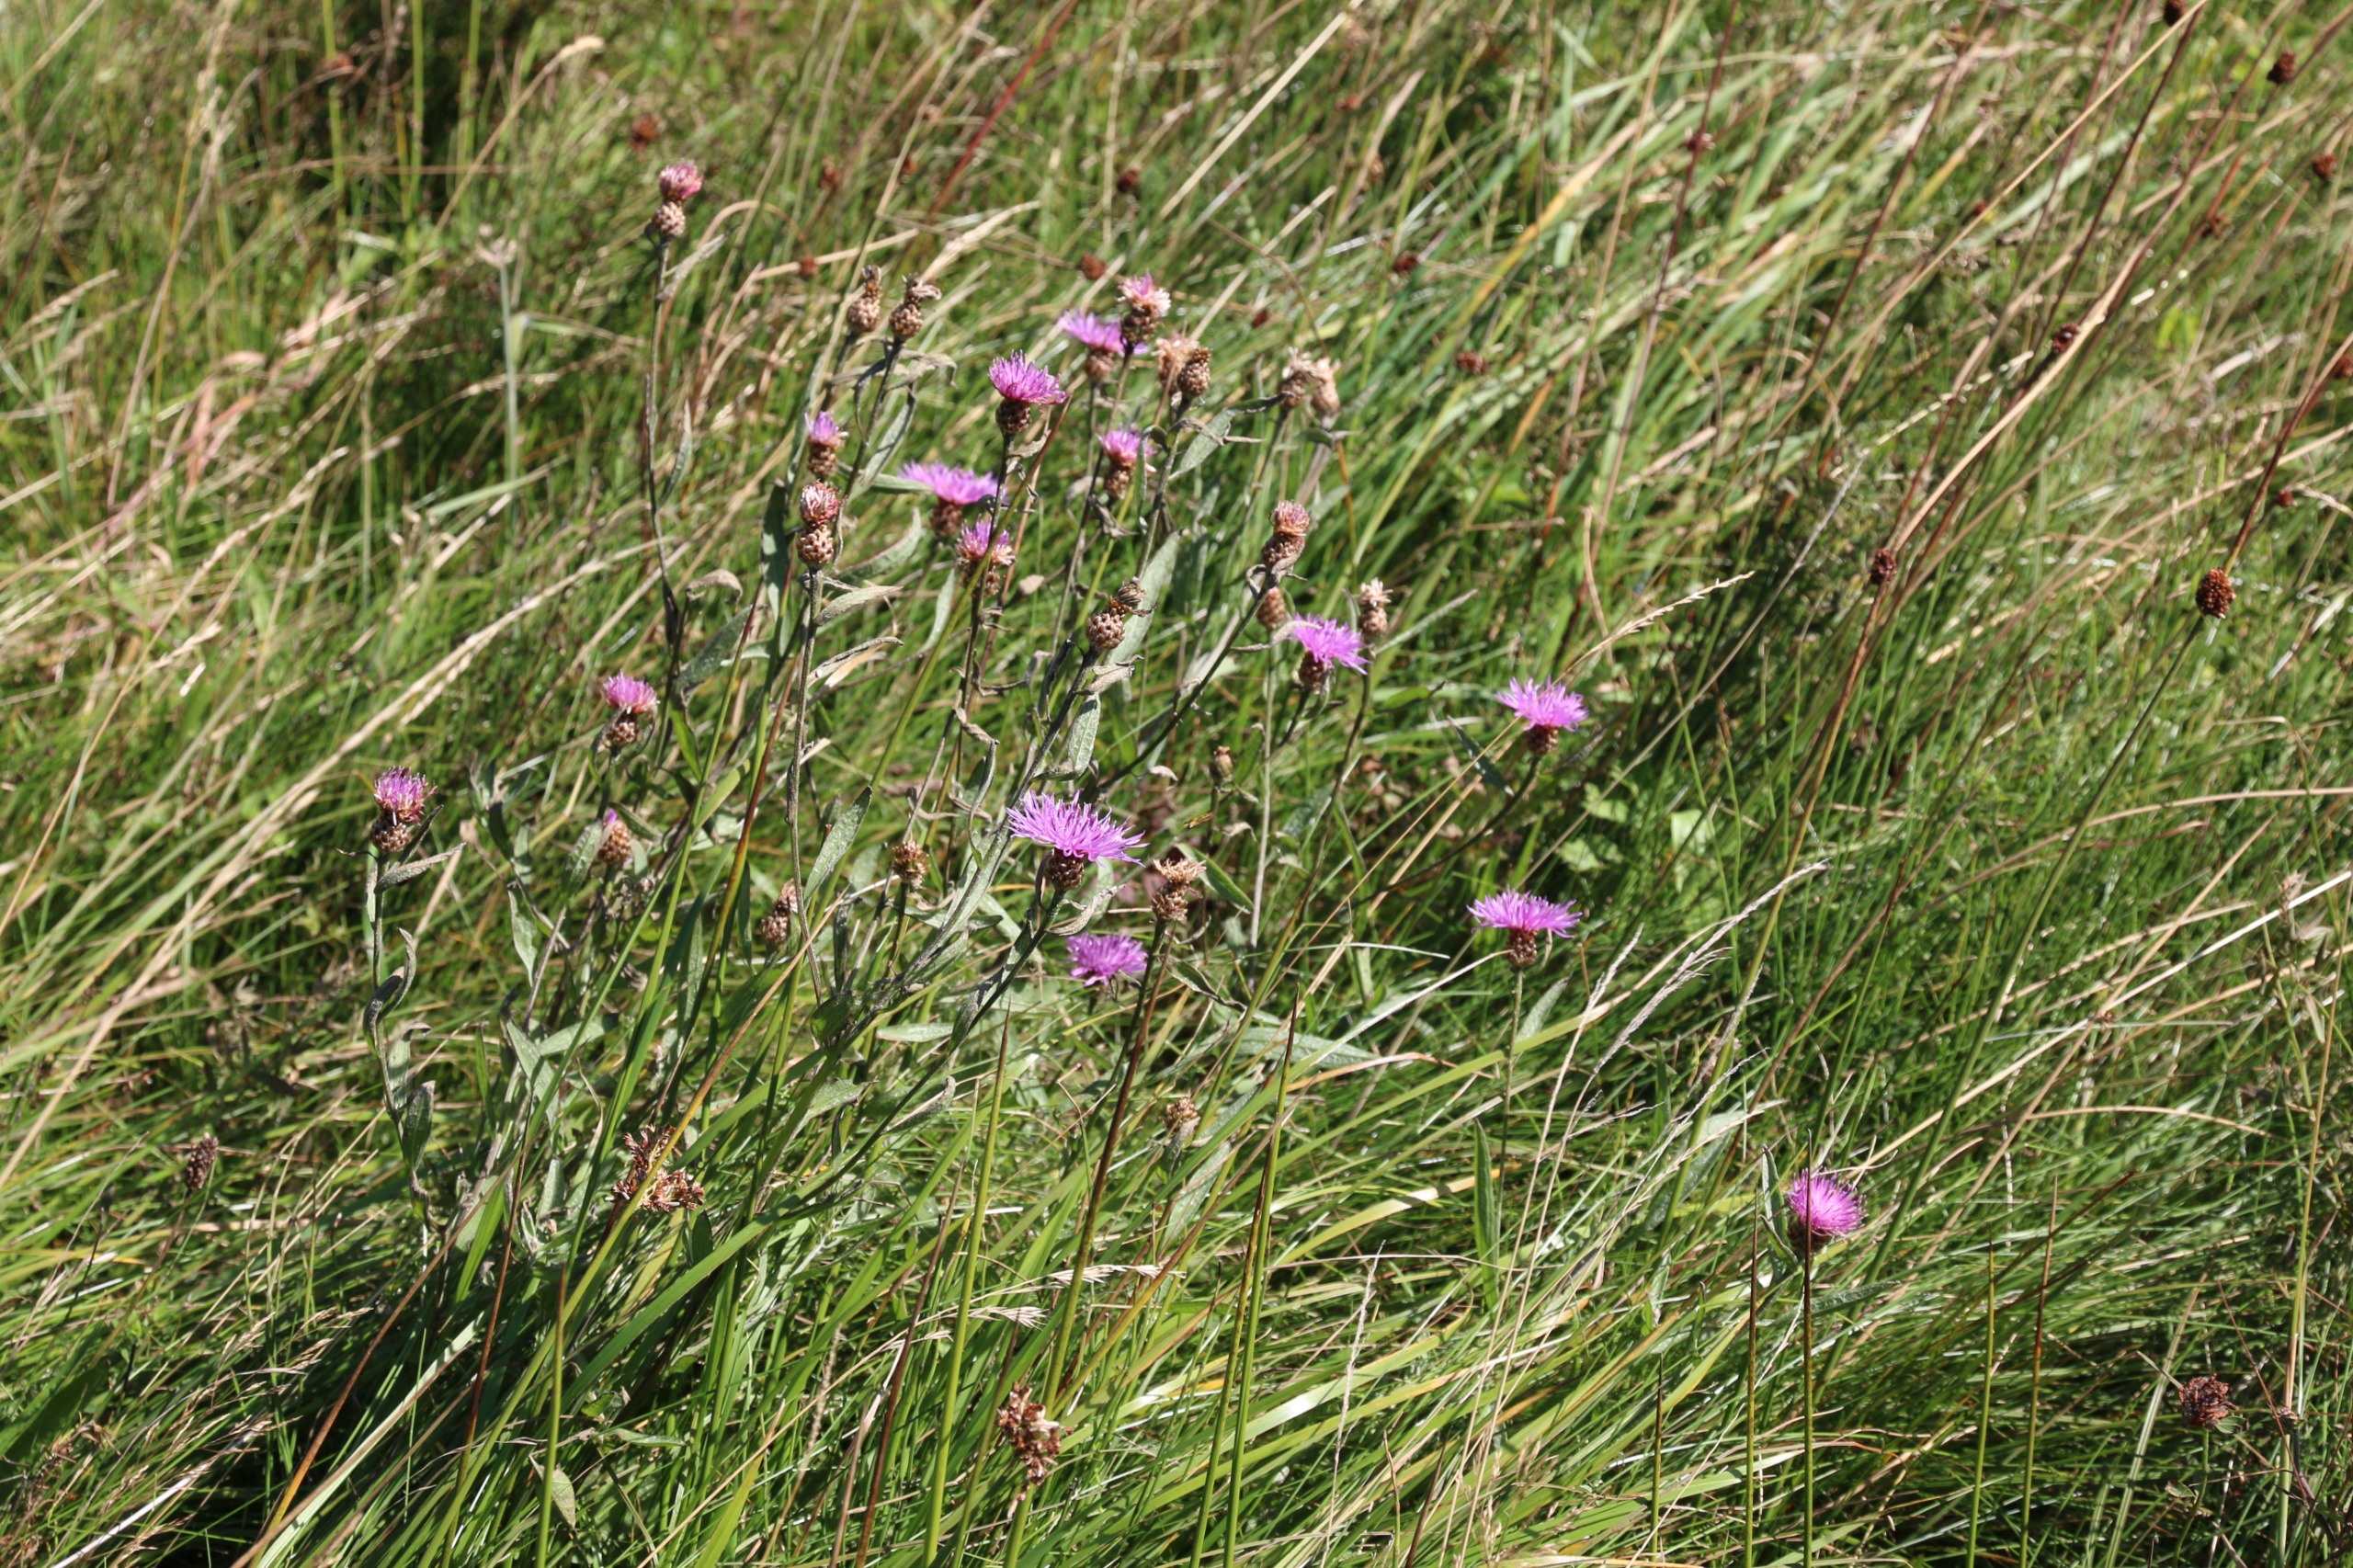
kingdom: Plantae
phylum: Tracheophyta
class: Magnoliopsida
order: Asterales
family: Asteraceae
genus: Centaurea
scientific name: Centaurea jacea
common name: Almindelig knopurt
